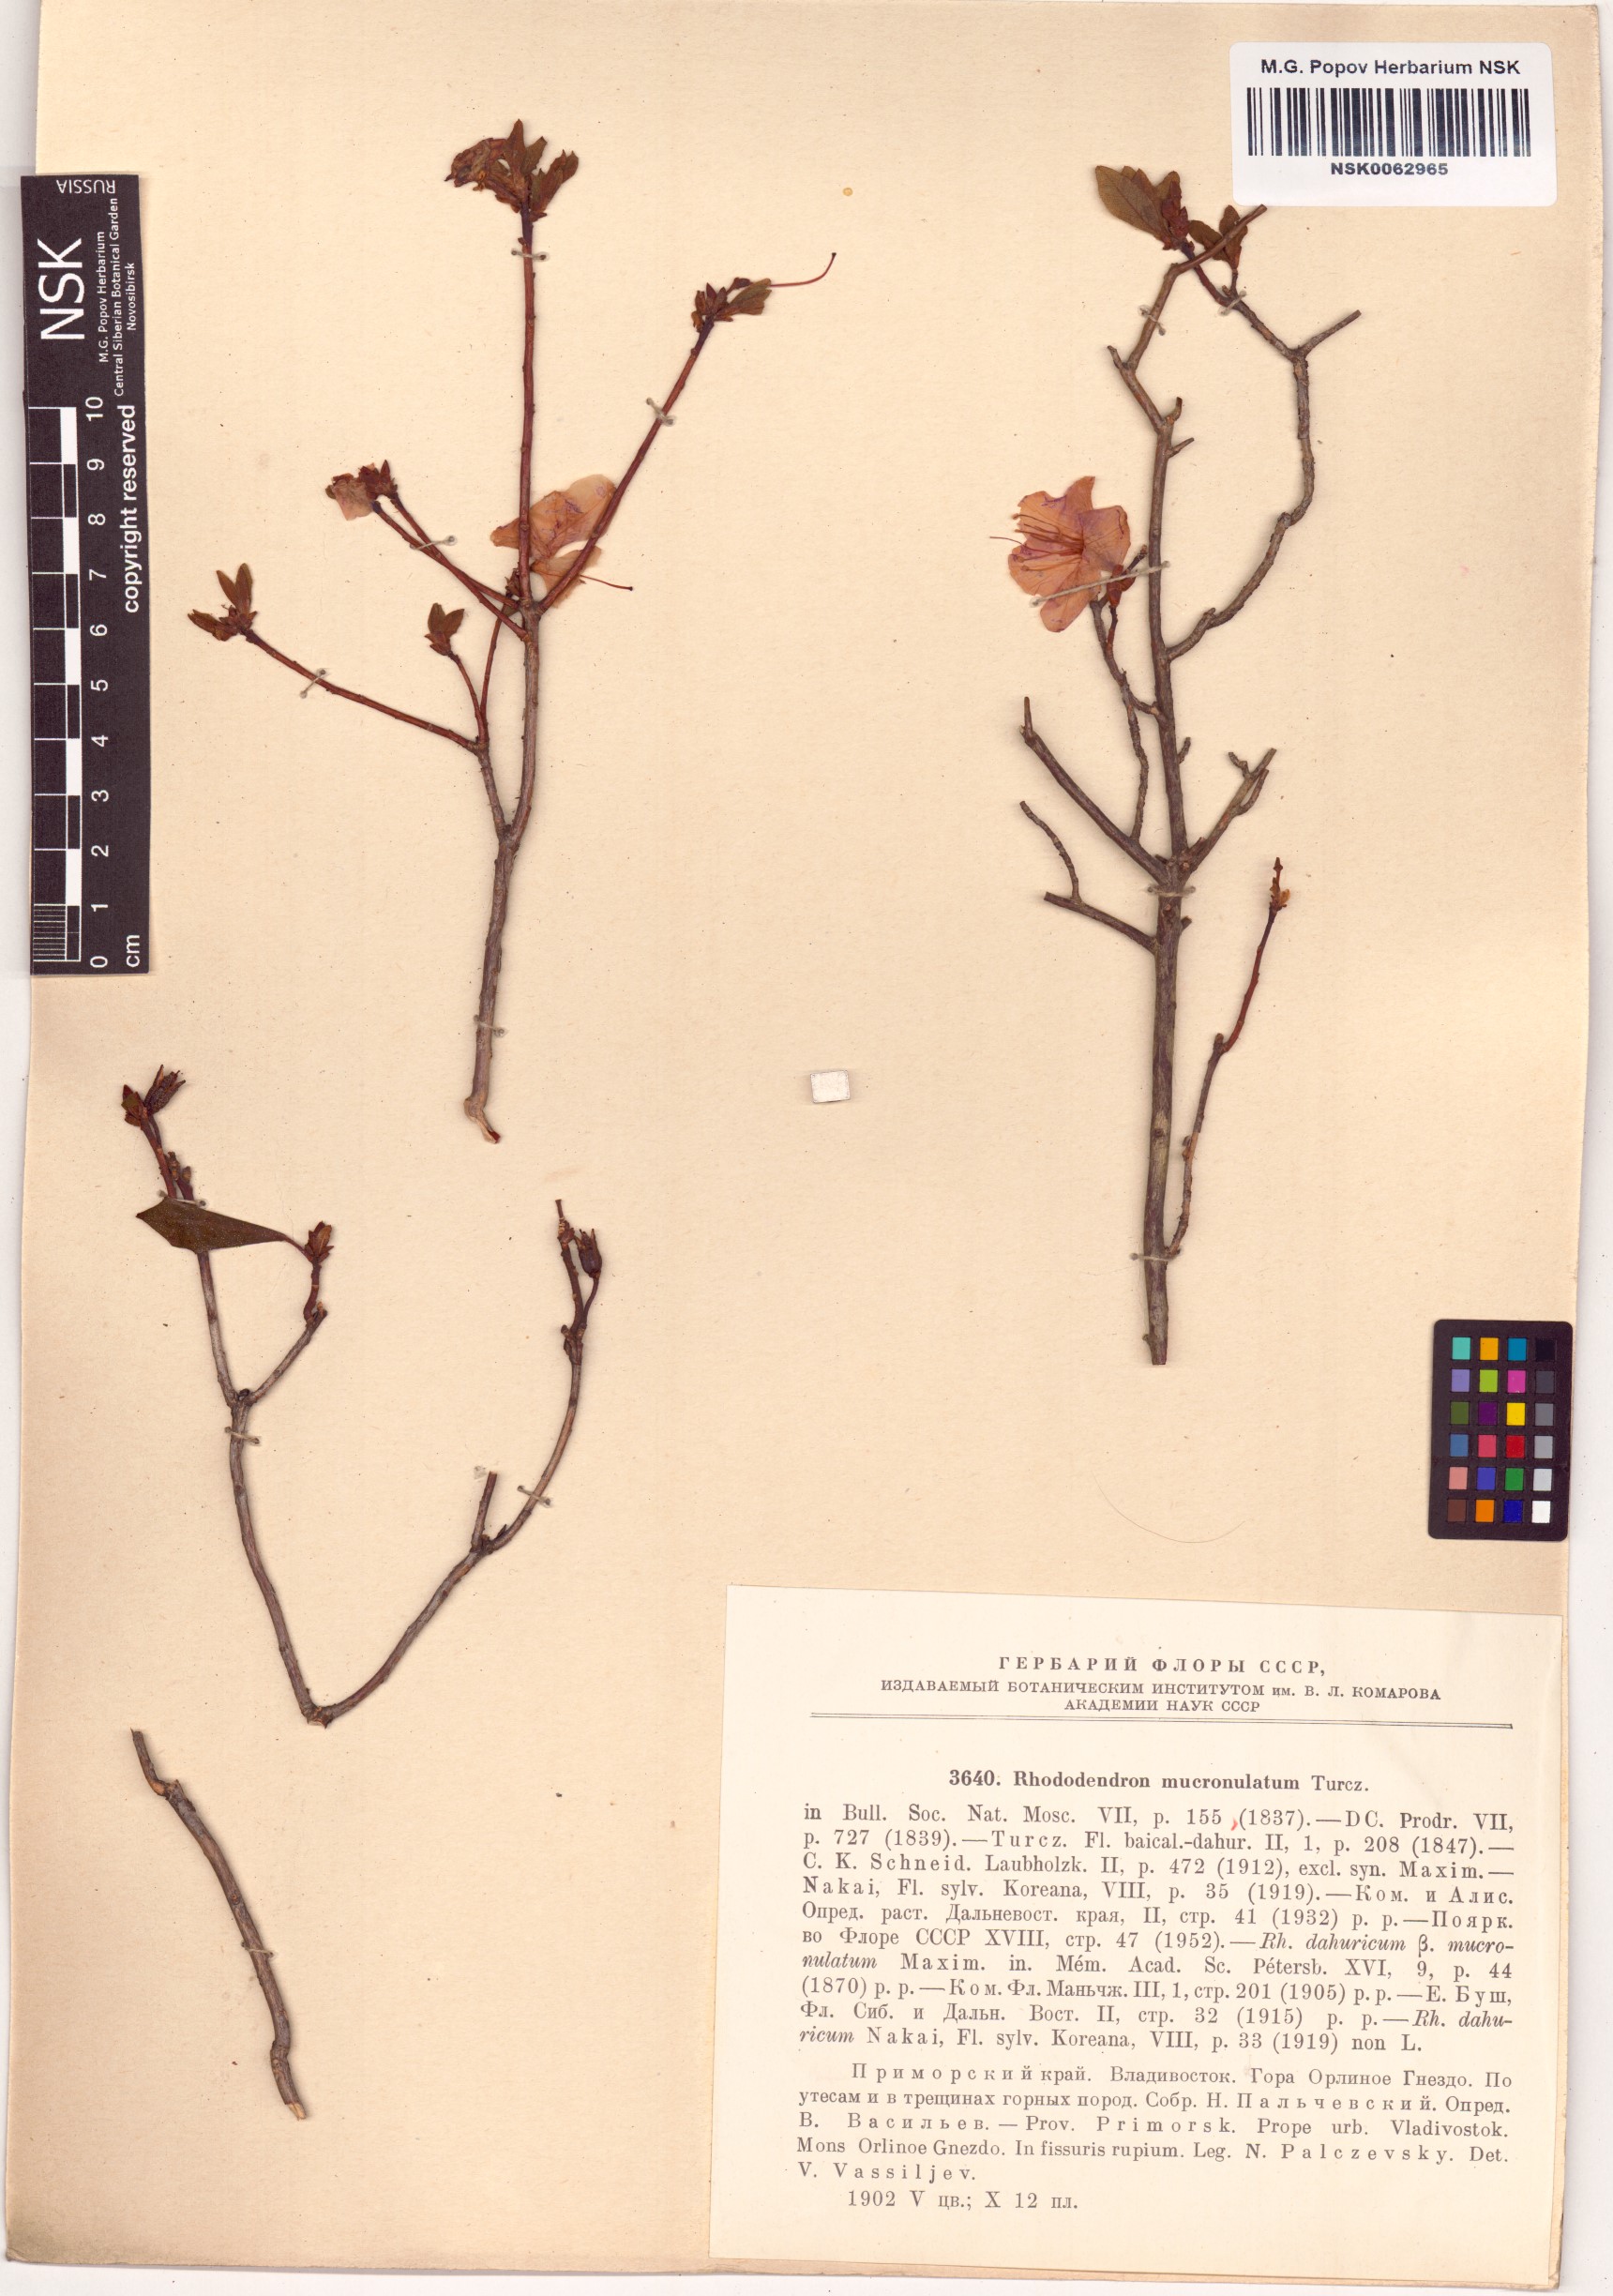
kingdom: Plantae
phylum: Tracheophyta
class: Magnoliopsida
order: Ericales
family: Ericaceae
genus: Rhododendron
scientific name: Rhododendron mucronulatum
